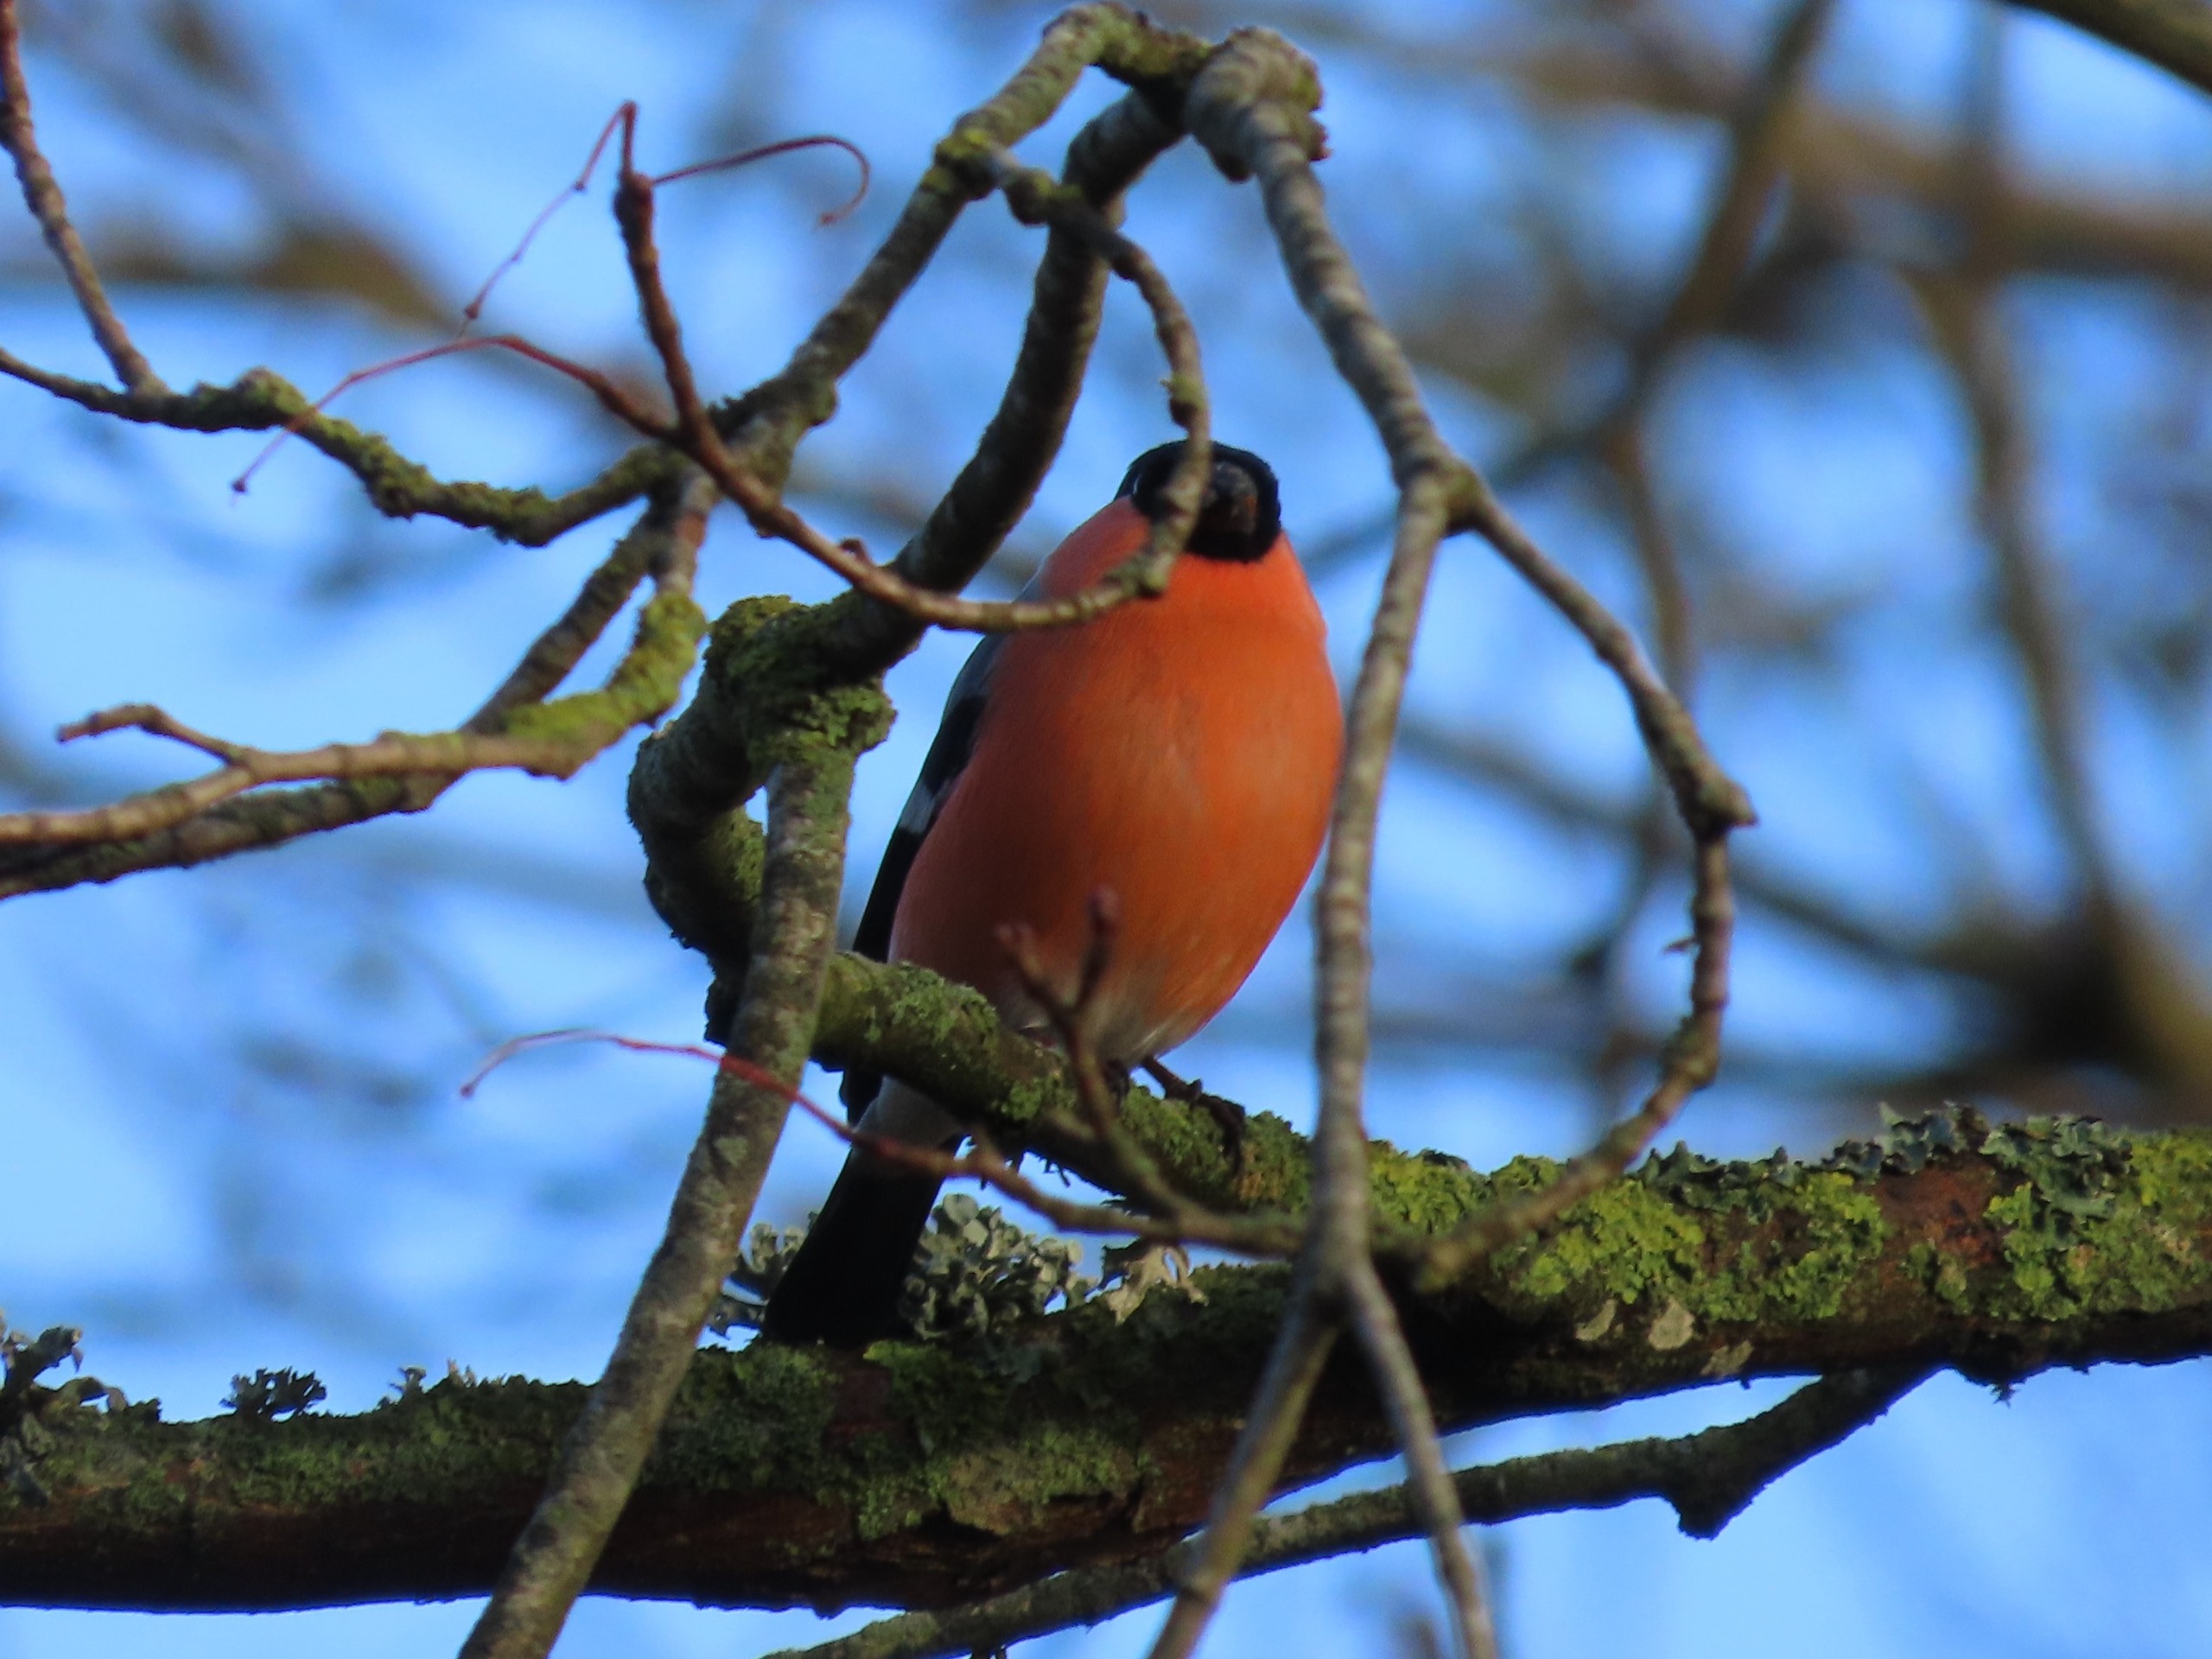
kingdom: Animalia
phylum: Chordata
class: Aves
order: Passeriformes
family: Fringillidae
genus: Pyrrhula
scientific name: Pyrrhula pyrrhula
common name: Dompap
